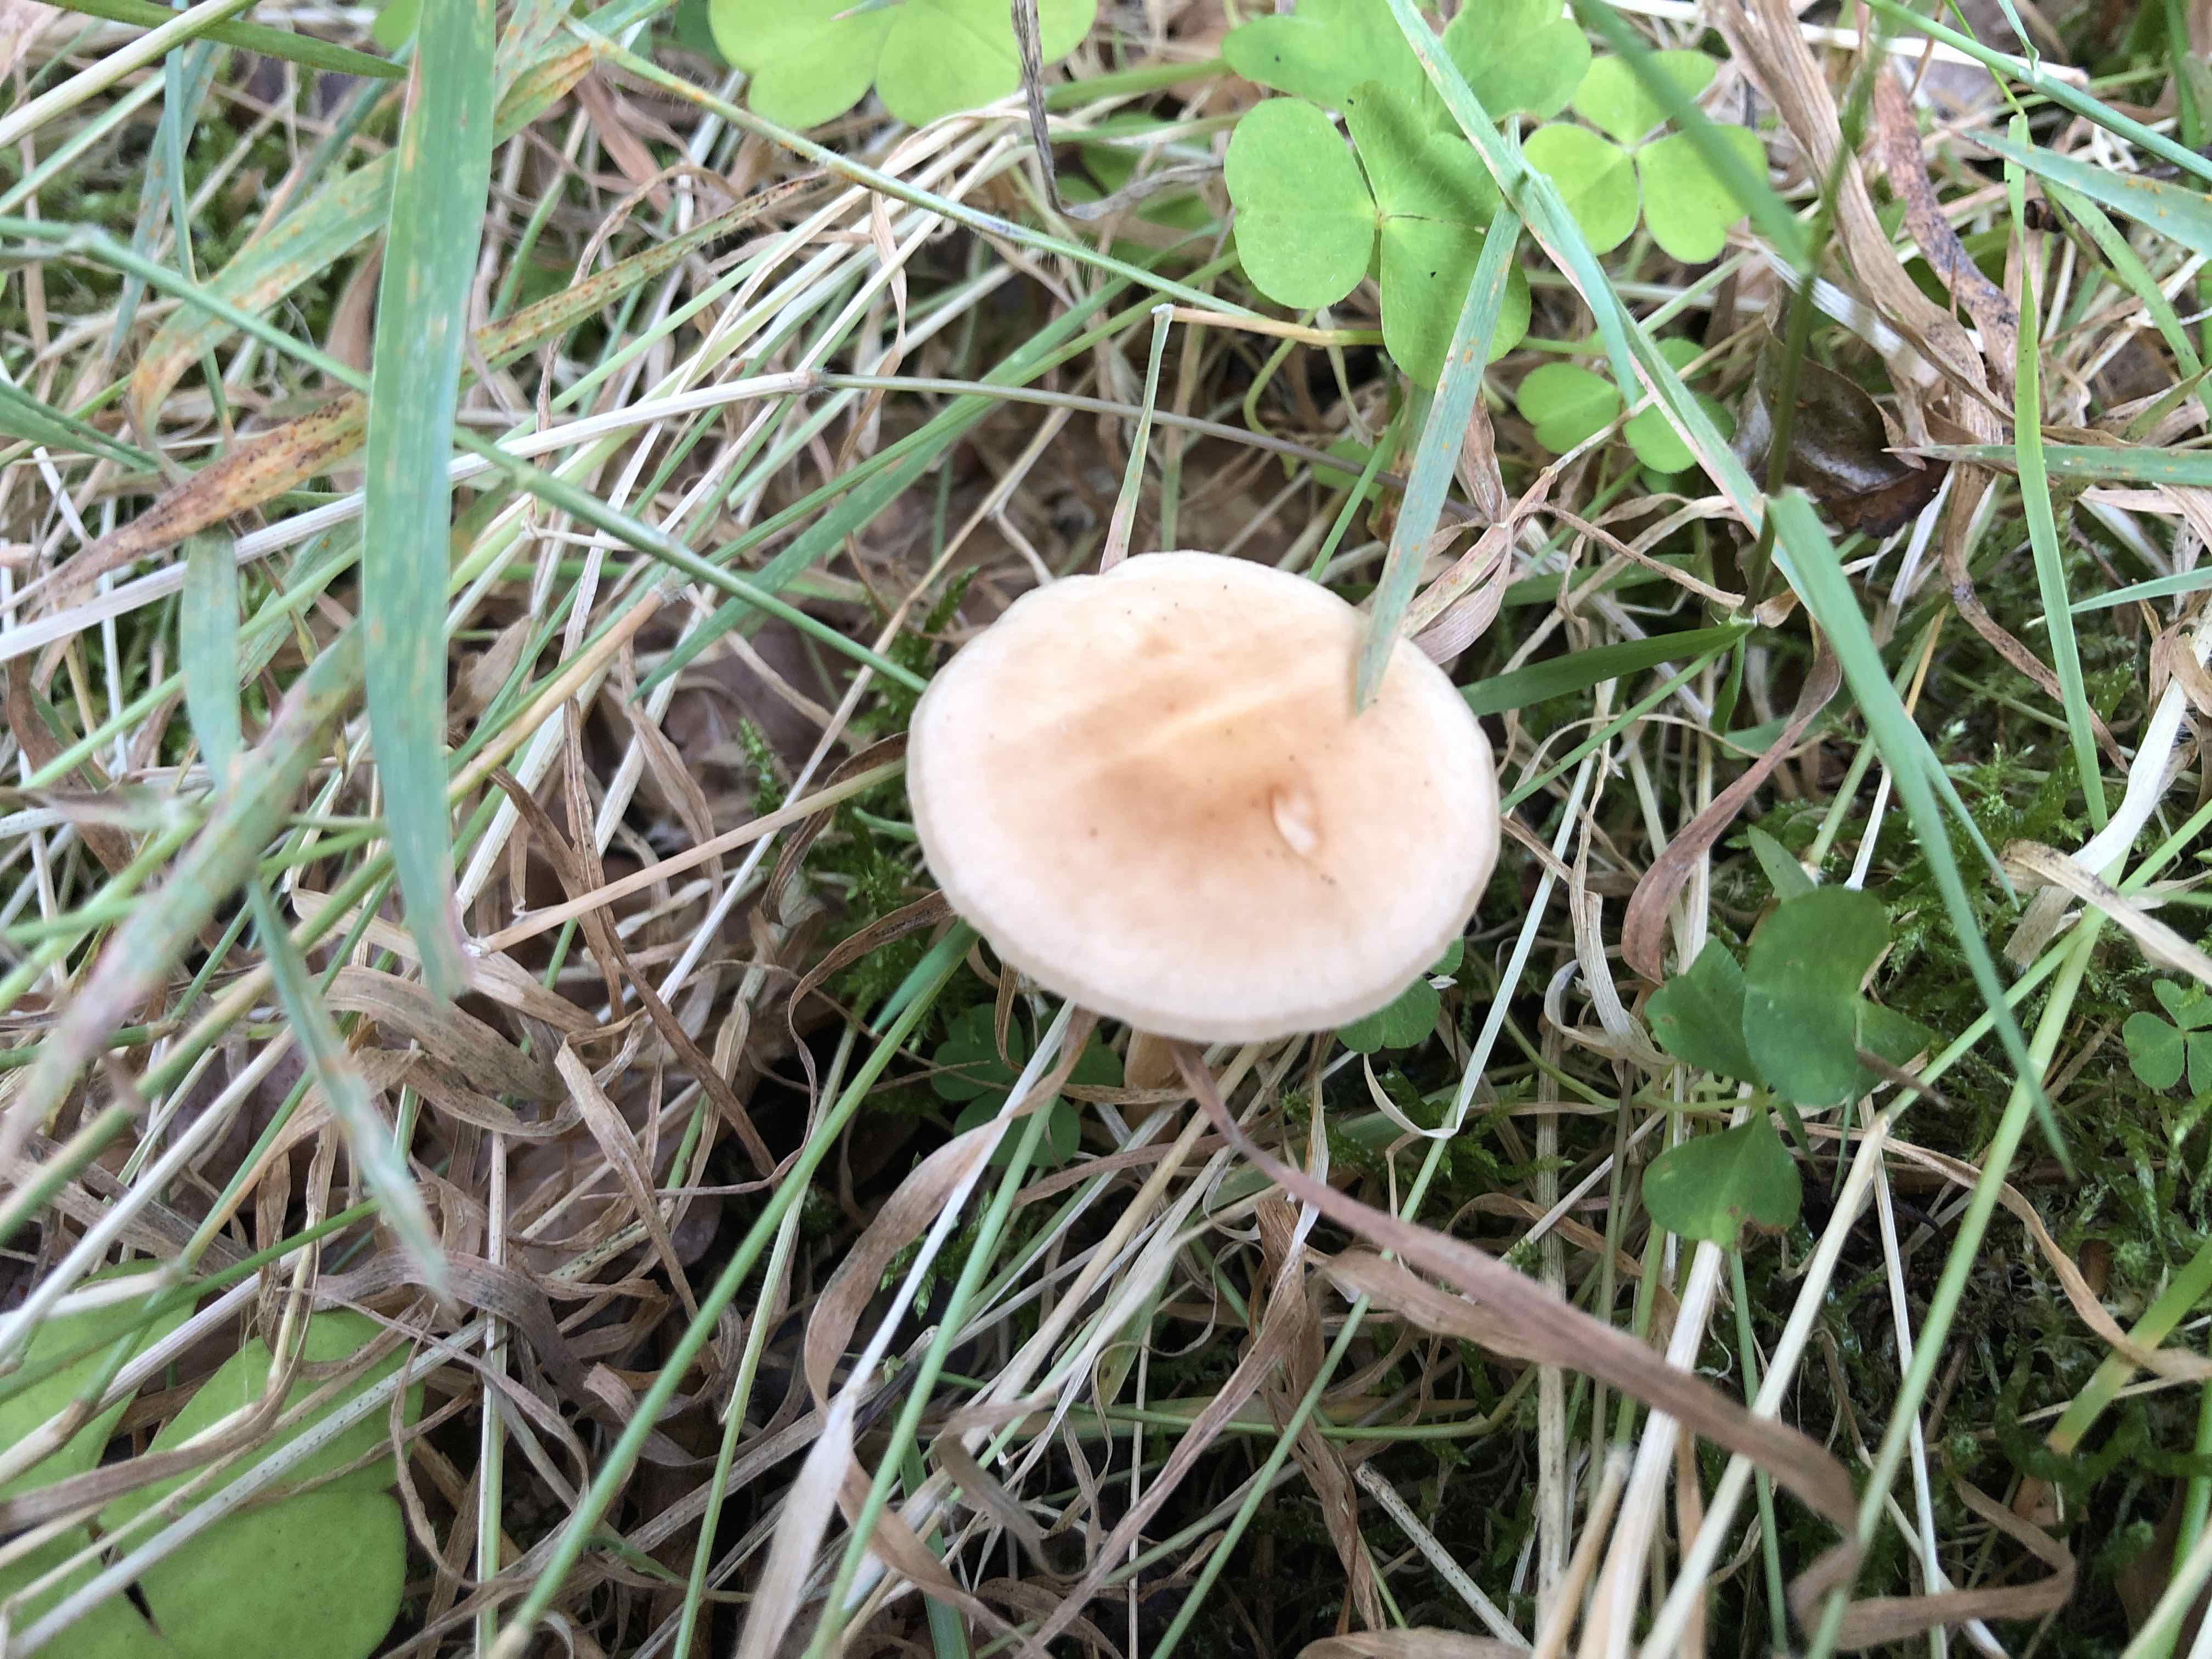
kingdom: Fungi
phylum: Basidiomycota
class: Agaricomycetes
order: Agaricales
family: Omphalotaceae
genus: Gymnopus
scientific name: Gymnopus
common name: fladhat
